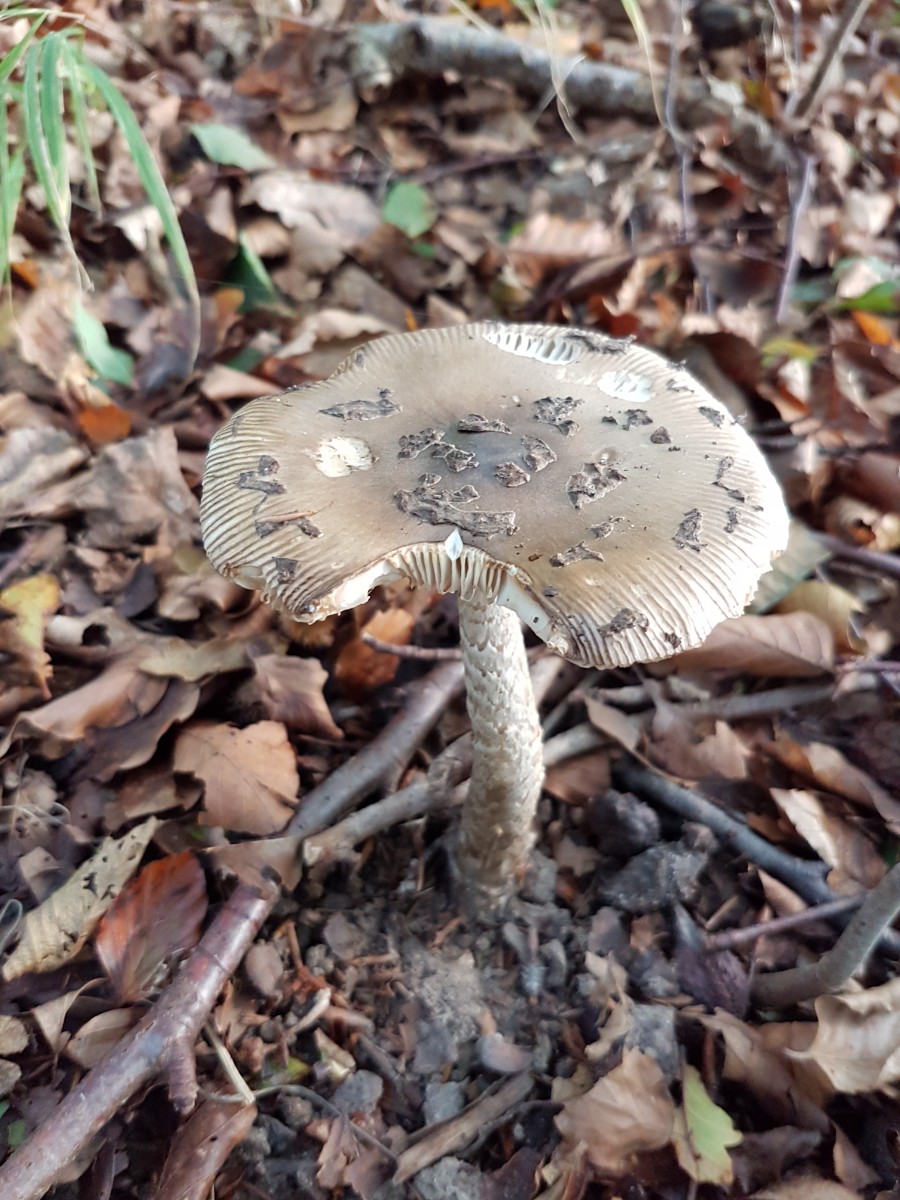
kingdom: Fungi
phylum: Basidiomycota
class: Agaricomycetes
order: Agaricales
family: Amanitaceae
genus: Amanita
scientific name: Amanita ceciliae
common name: stor kam-fluesvamp
